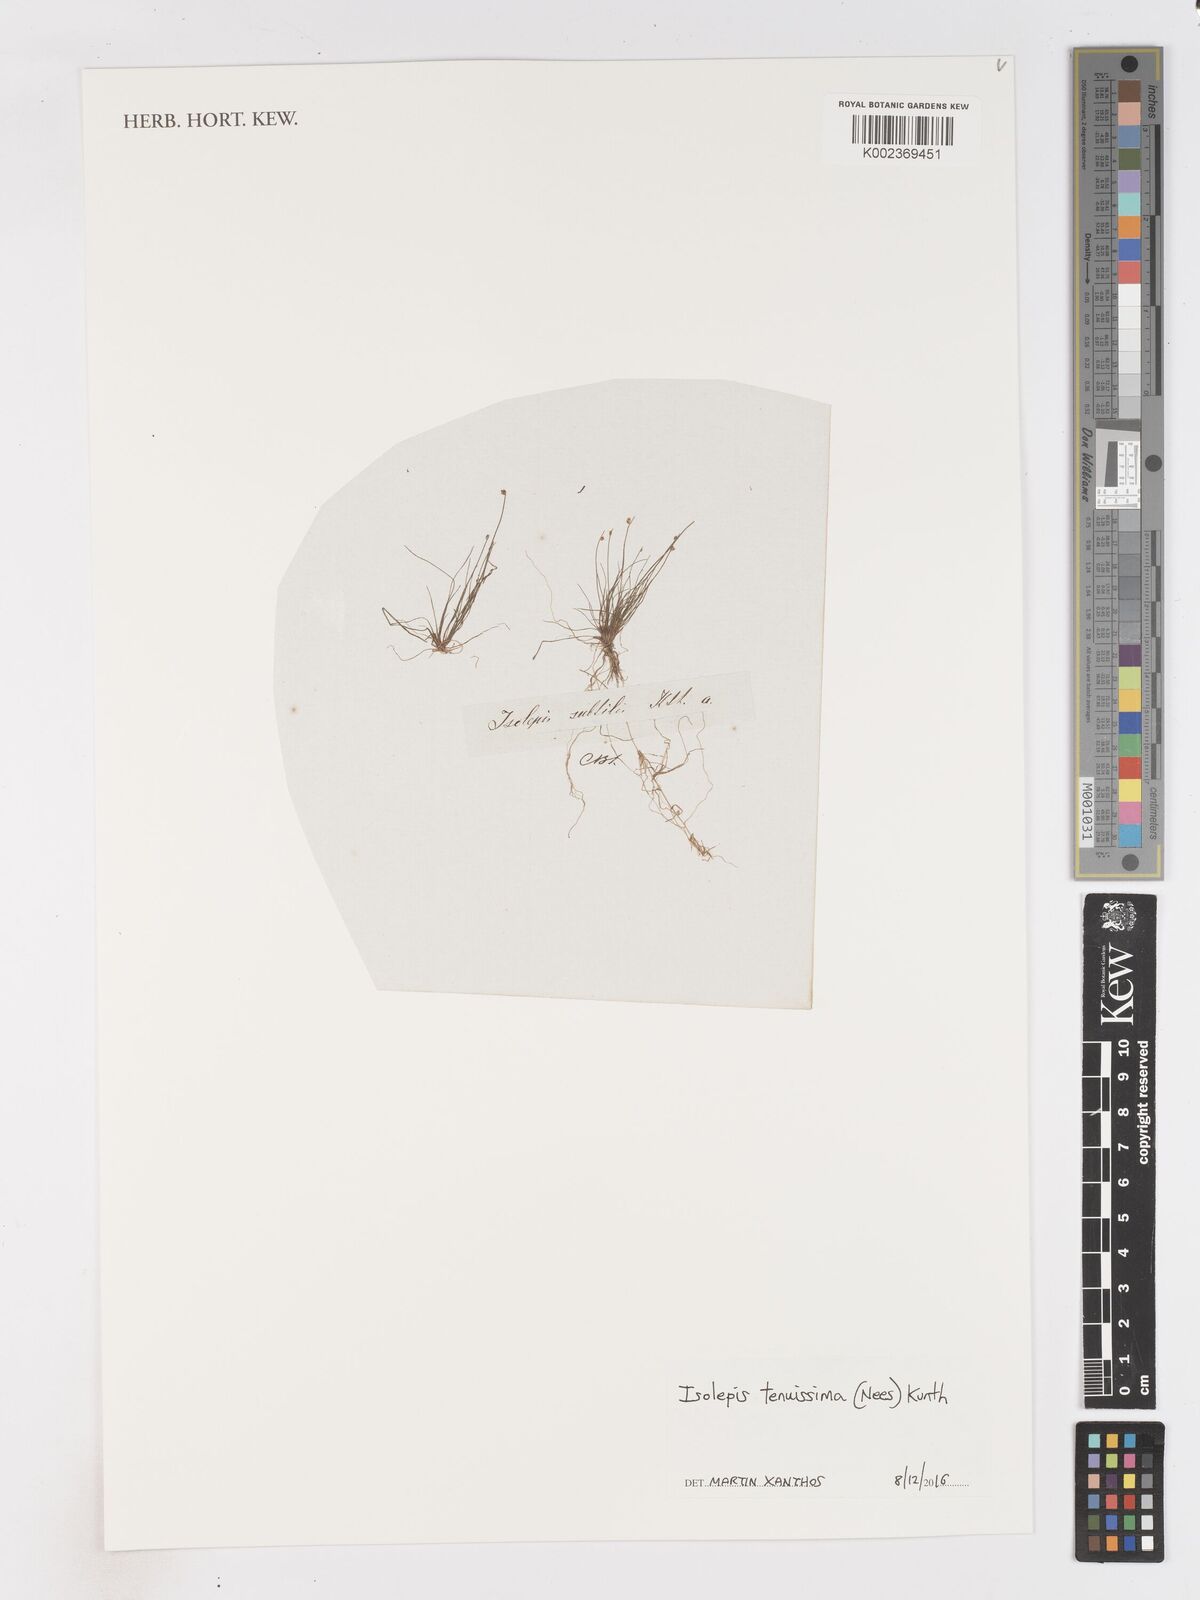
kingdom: Plantae
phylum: Tracheophyta
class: Liliopsida
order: Poales
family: Cyperaceae
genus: Isolepis
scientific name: Isolepis tenuissima
